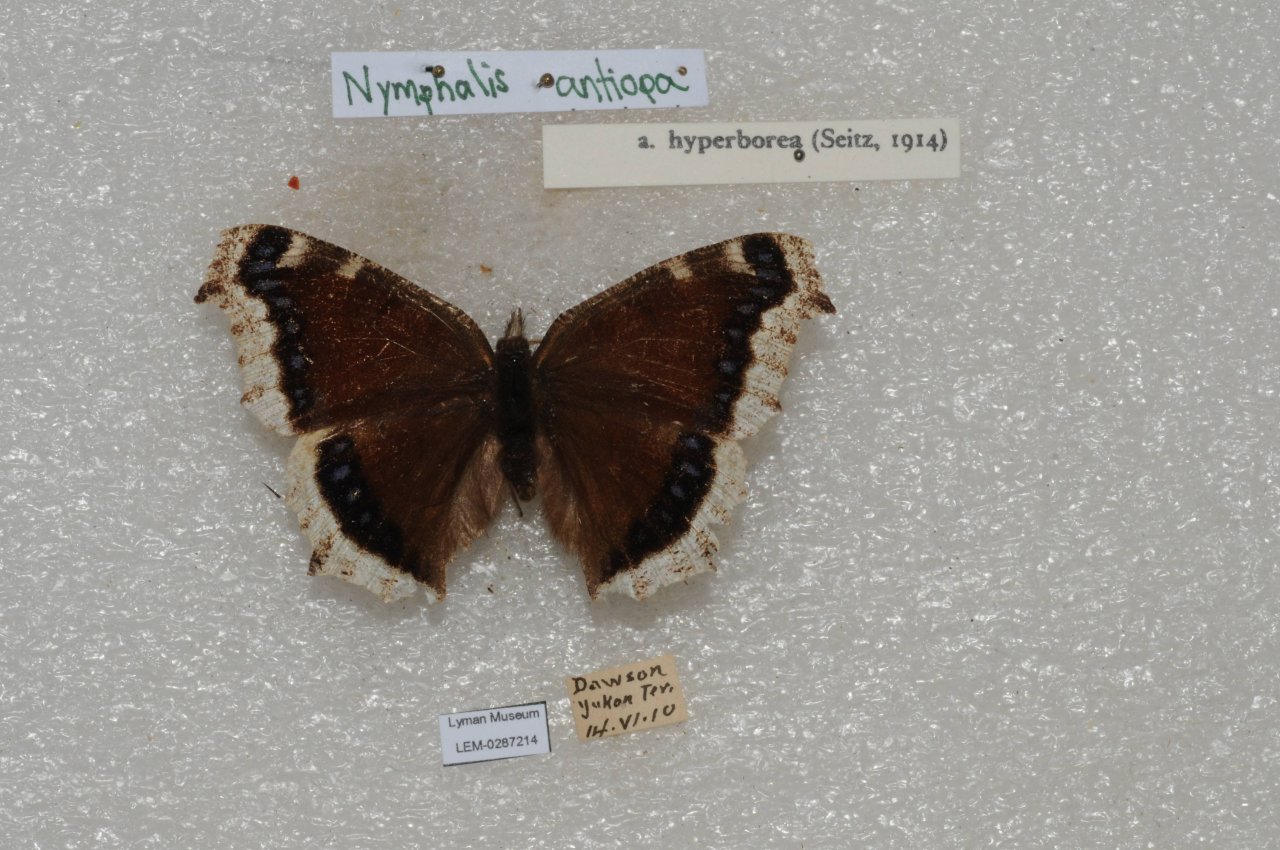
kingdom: Animalia
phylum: Arthropoda
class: Insecta
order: Lepidoptera
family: Nymphalidae
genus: Nymphalis
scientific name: Nymphalis antiopa
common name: Mourning Cloak
